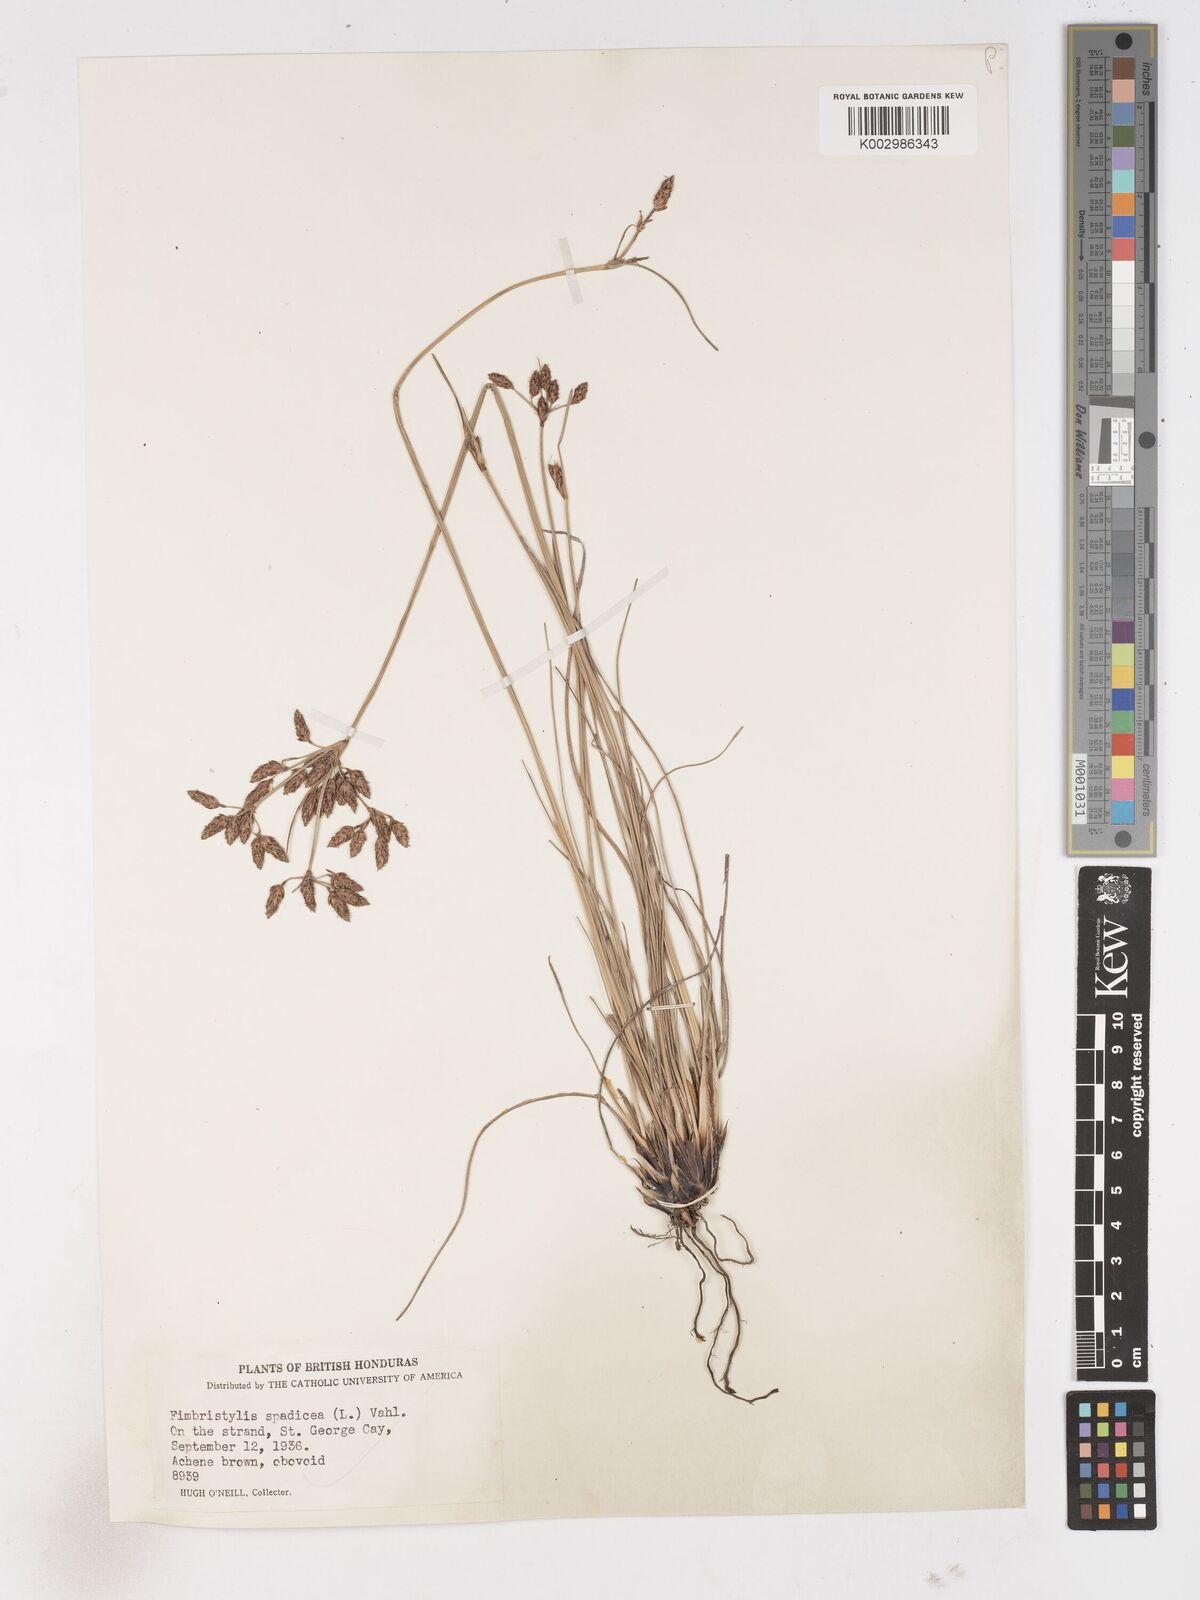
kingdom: Plantae
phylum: Tracheophyta
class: Liliopsida
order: Poales
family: Cyperaceae
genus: Fimbristylis
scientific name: Fimbristylis spadicea
